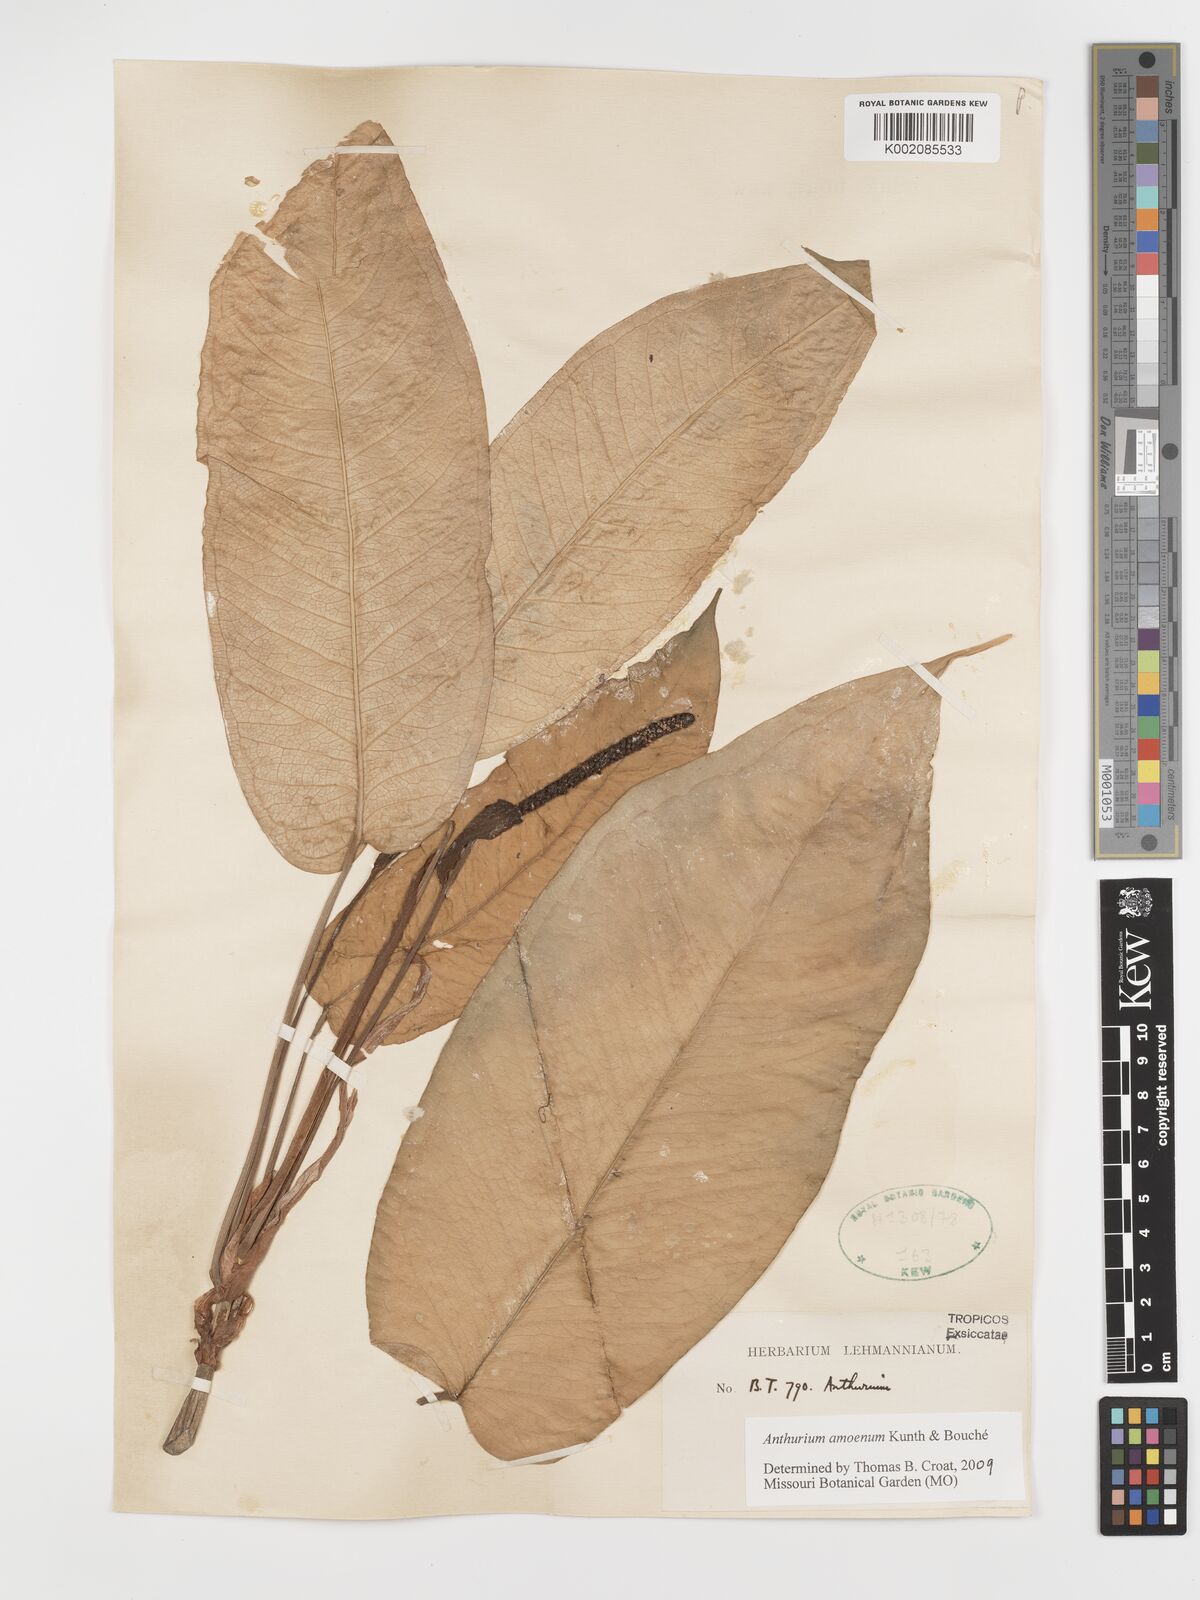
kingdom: Plantae
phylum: Tracheophyta
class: Liliopsida
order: Alismatales
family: Araceae
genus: Anthurium
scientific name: Anthurium amoenum
